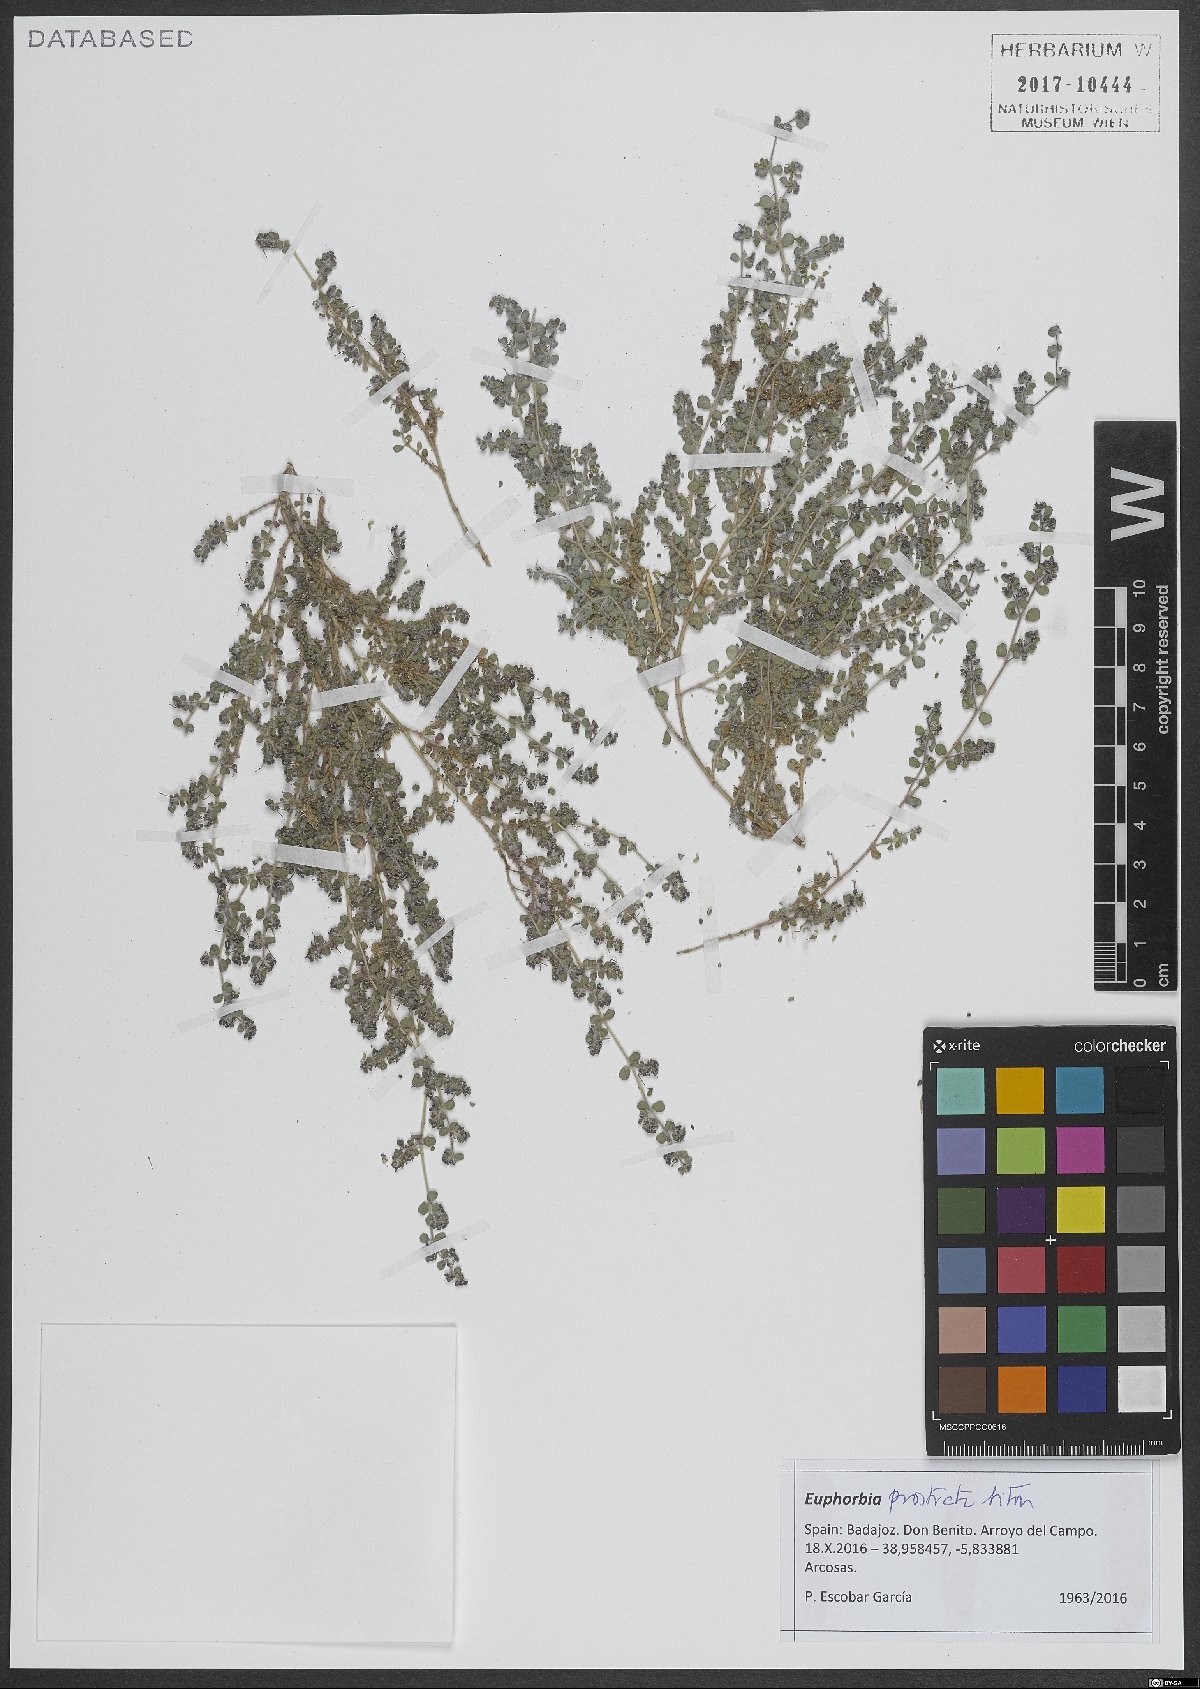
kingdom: Plantae
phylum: Tracheophyta
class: Magnoliopsida
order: Malpighiales
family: Euphorbiaceae
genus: Euphorbia
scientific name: Euphorbia prostrata
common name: Prostrate sandmat
